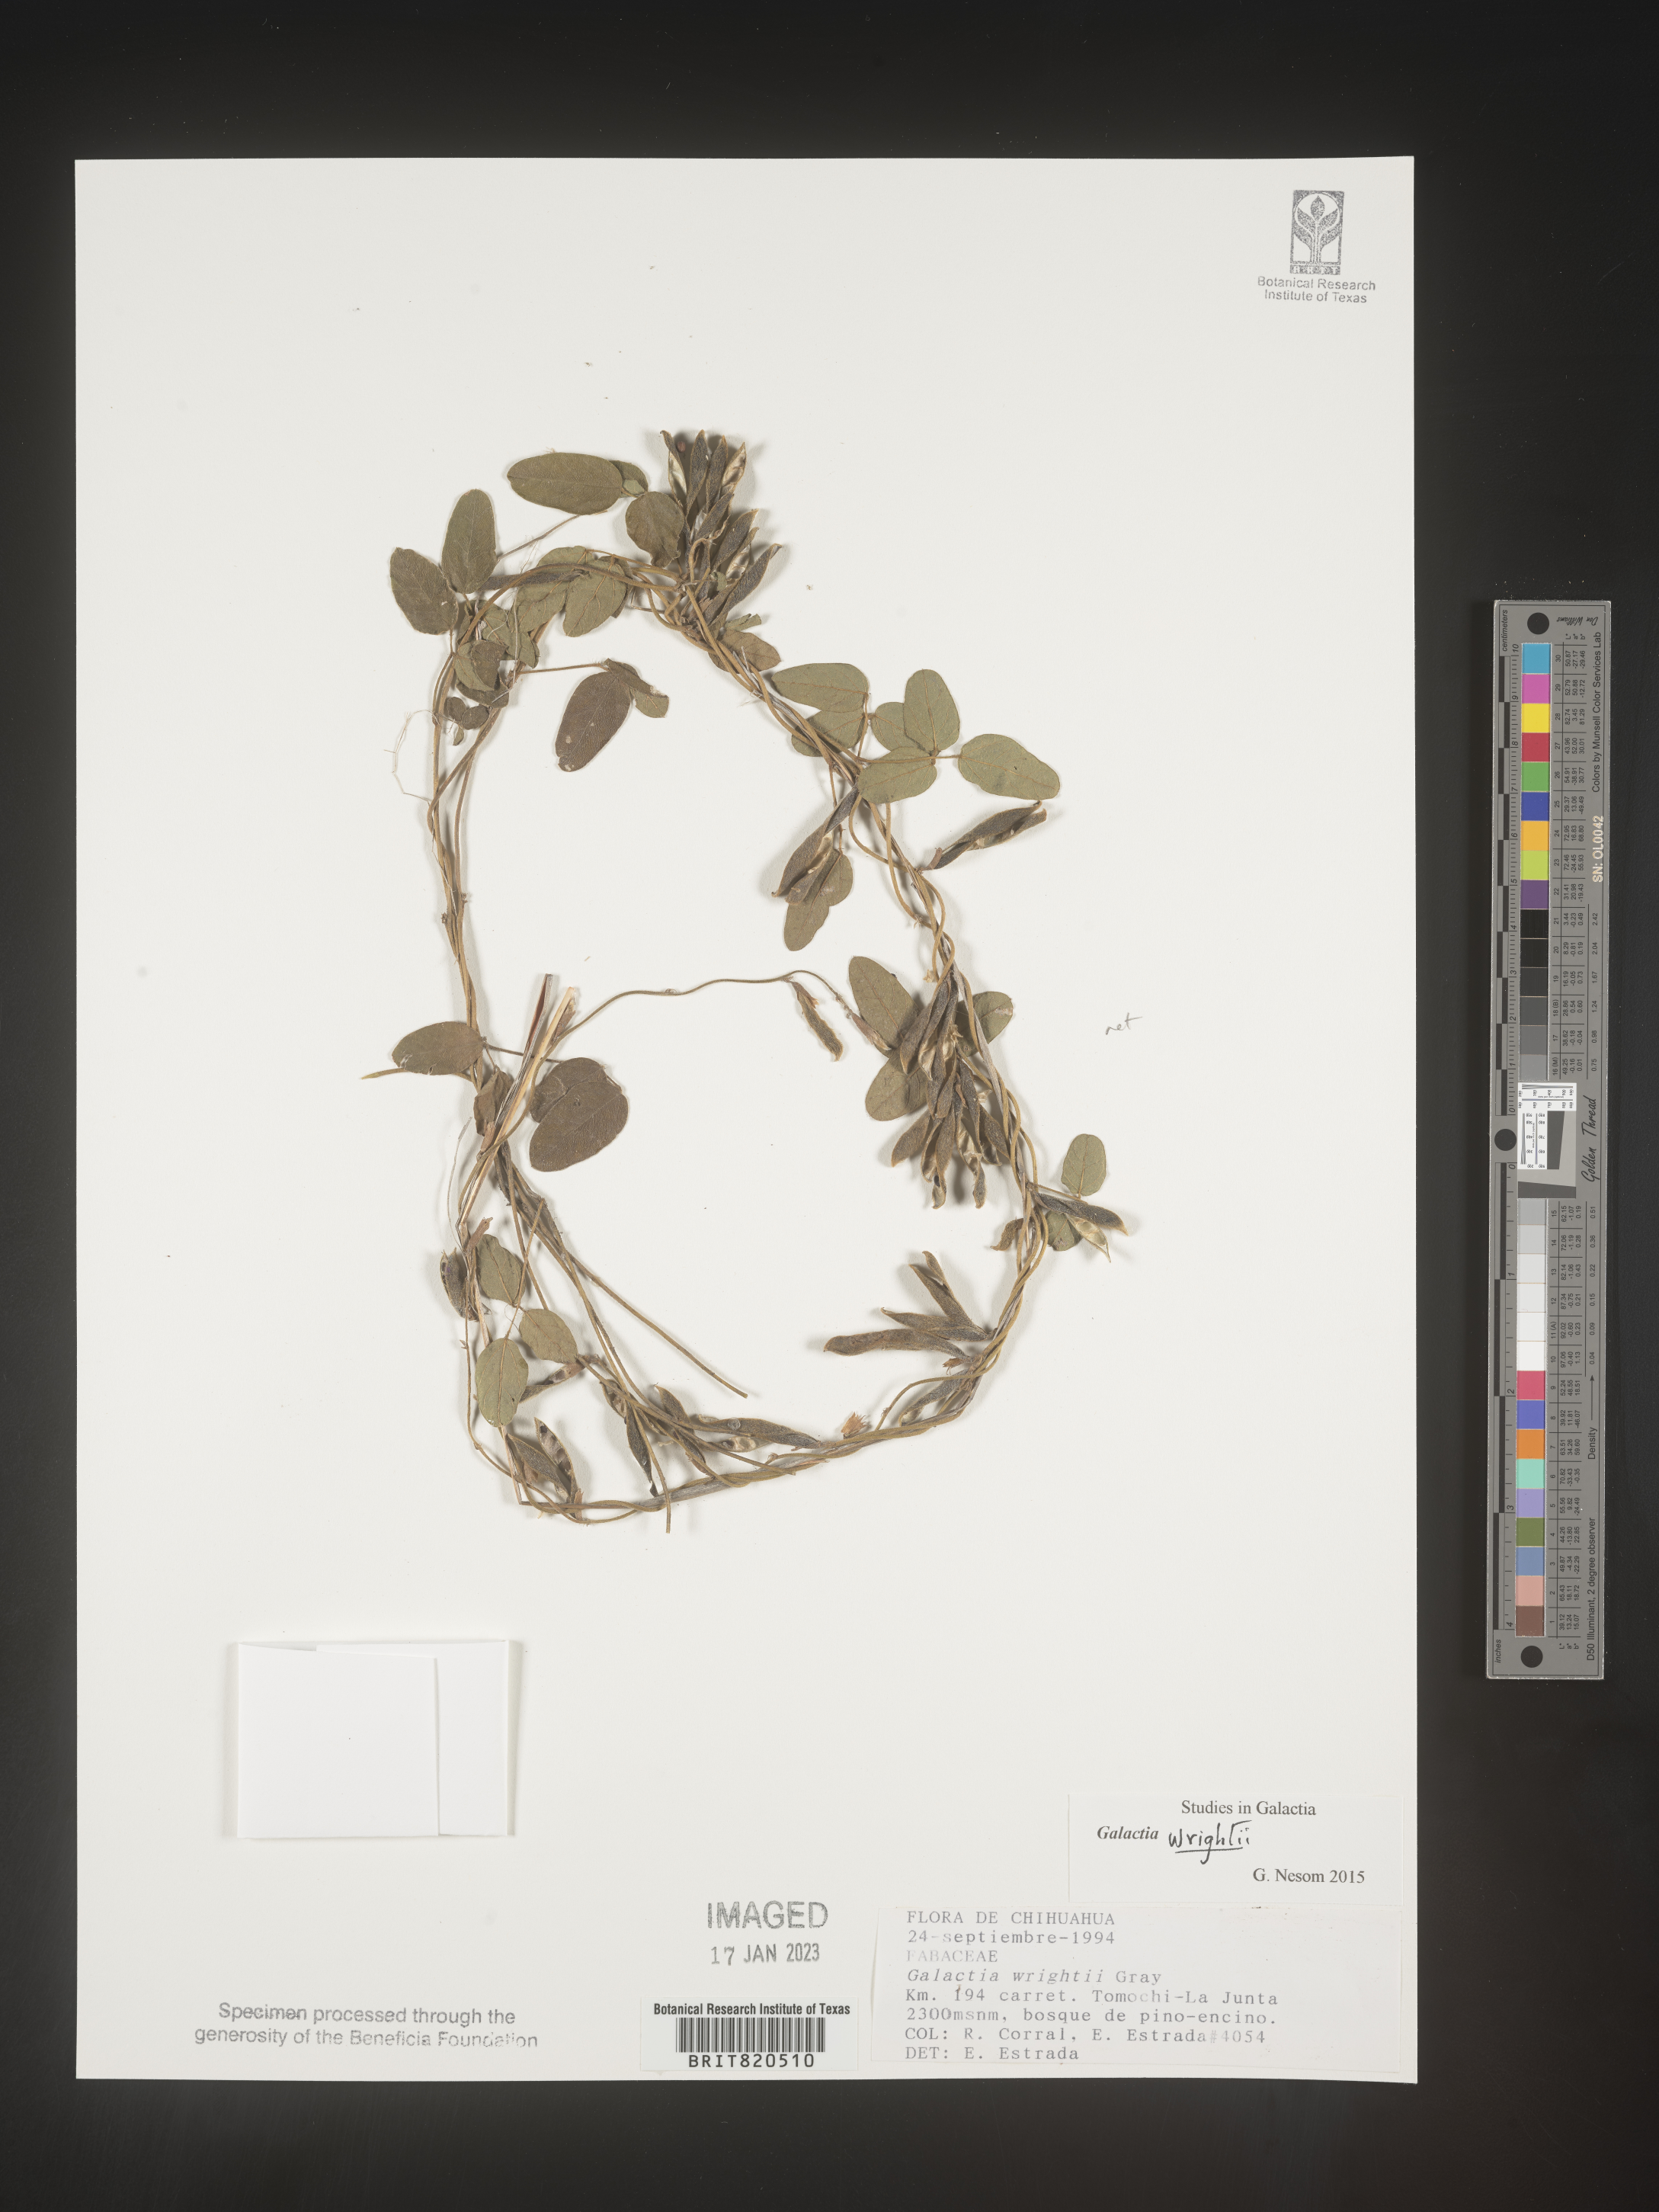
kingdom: Plantae
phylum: Tracheophyta
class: Magnoliopsida
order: Fabales
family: Fabaceae
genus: Galactia
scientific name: Galactia wrightii
